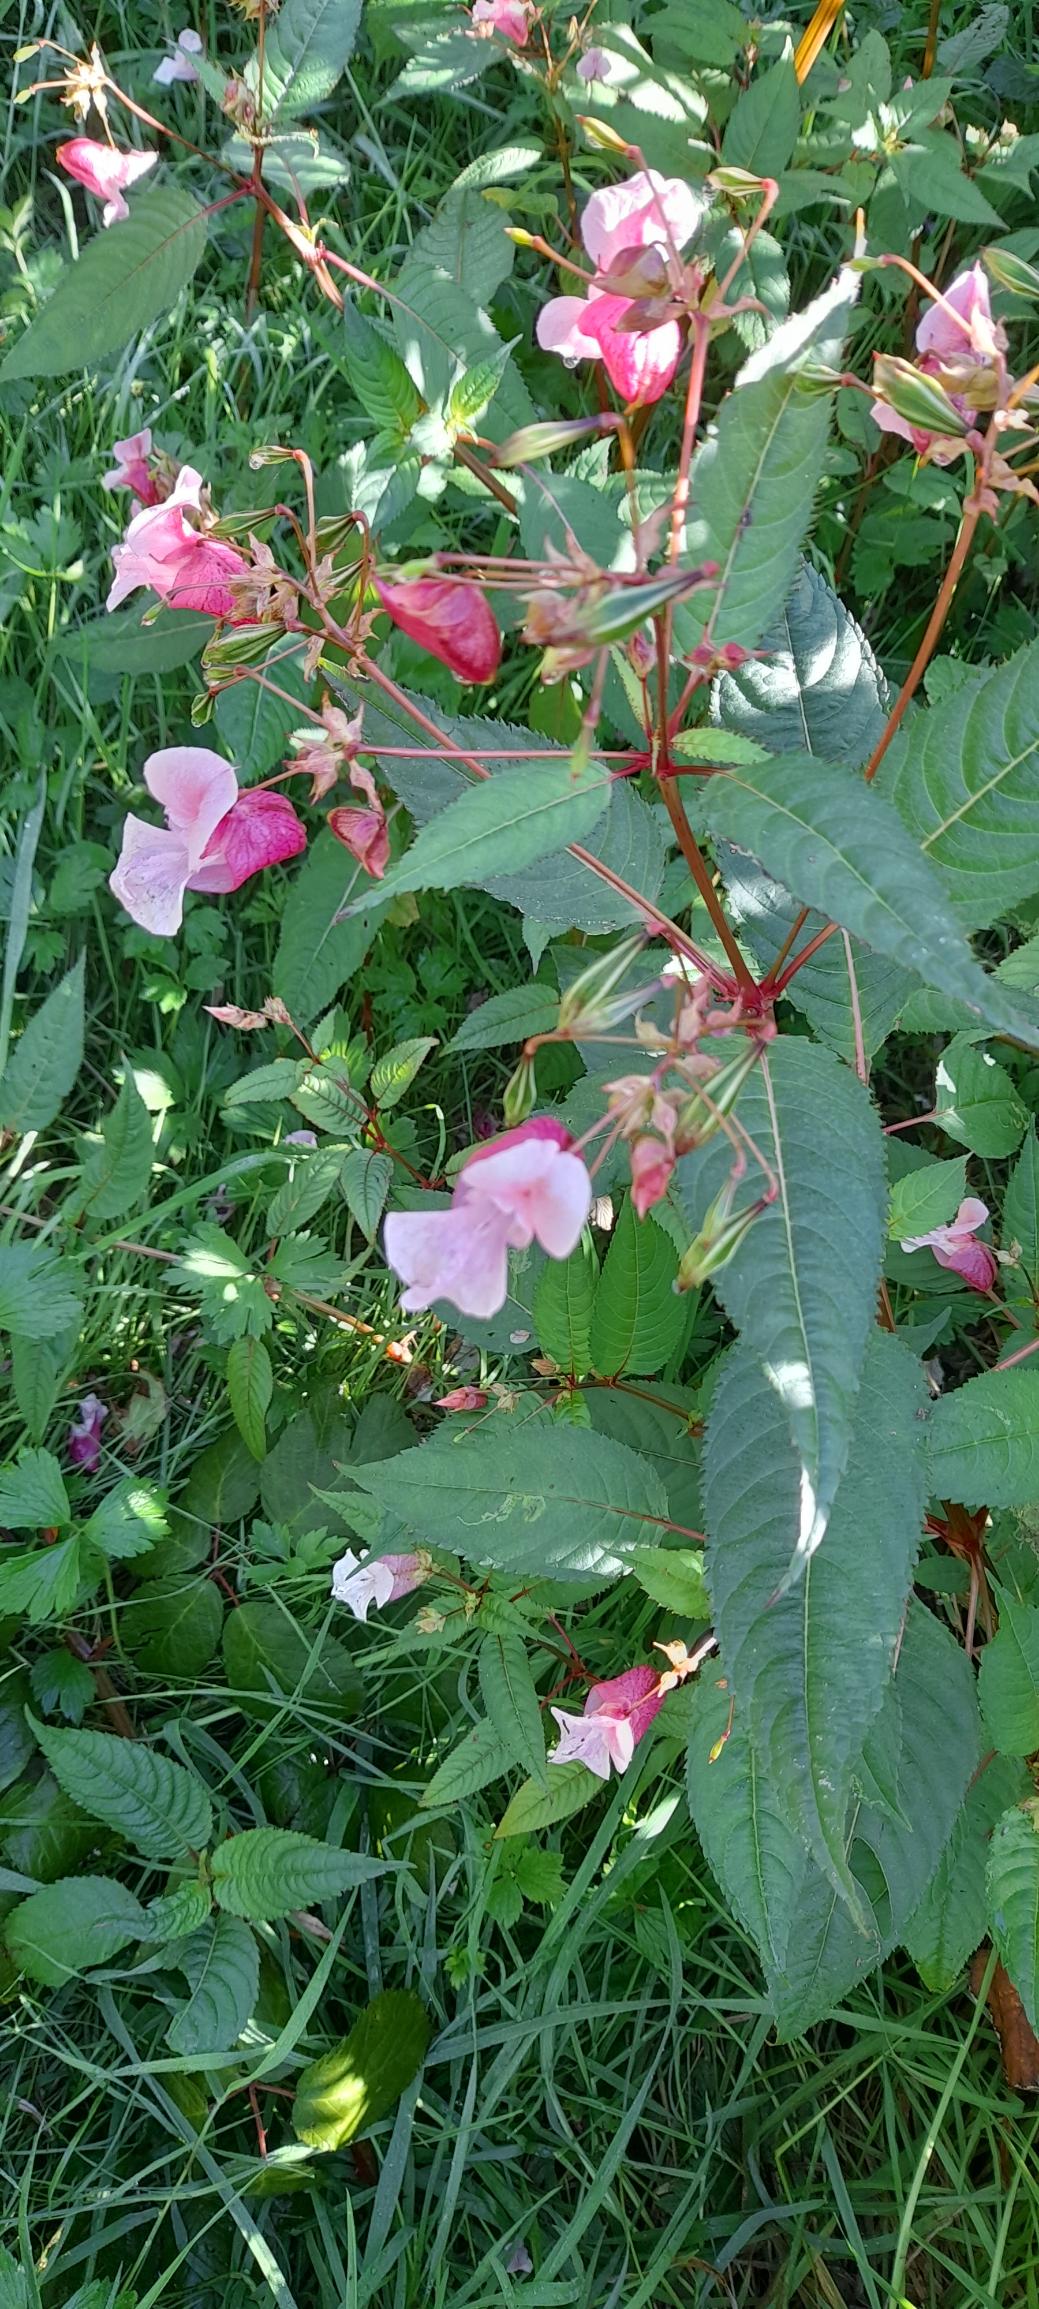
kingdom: Plantae
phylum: Tracheophyta
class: Magnoliopsida
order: Ericales
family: Balsaminaceae
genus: Impatiens
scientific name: Impatiens glandulifera
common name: Kæmpe-balsamin
